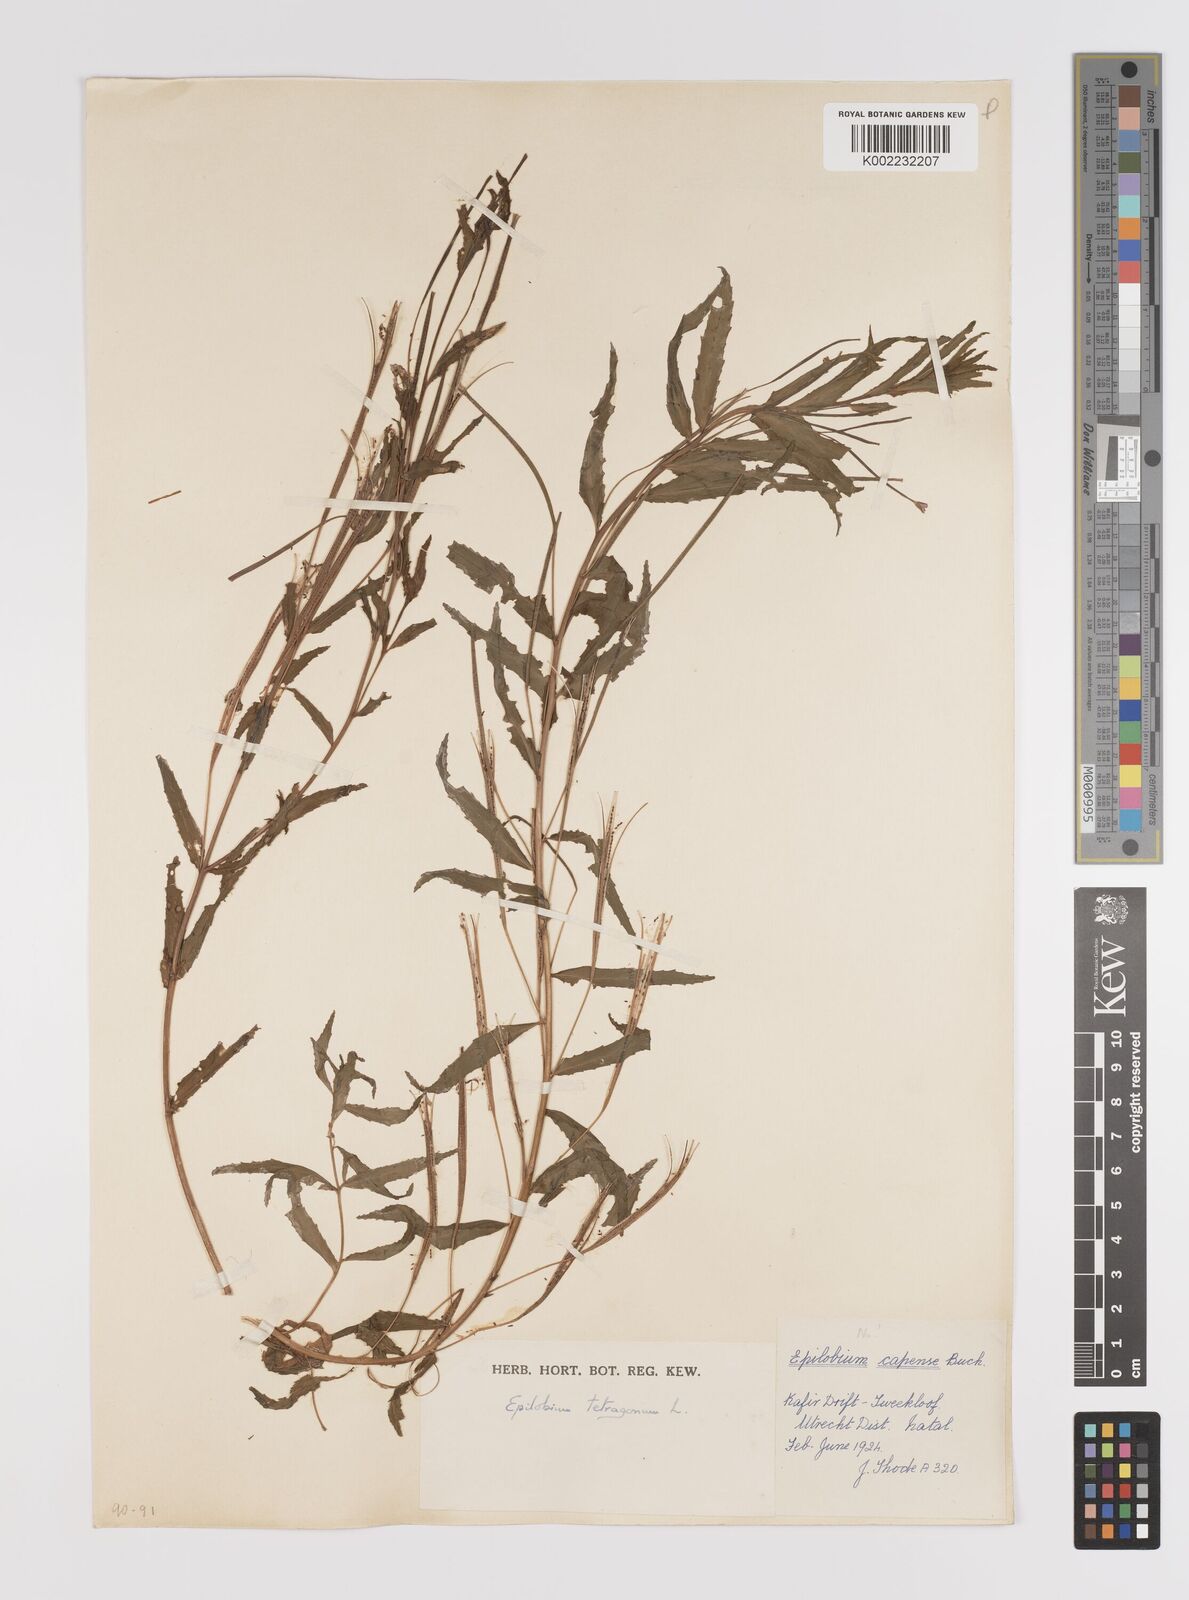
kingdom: Plantae
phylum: Tracheophyta
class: Magnoliopsida
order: Myrtales
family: Onagraceae
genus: Epilobium
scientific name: Epilobium tetragonum
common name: Square-stemmed willowherb
